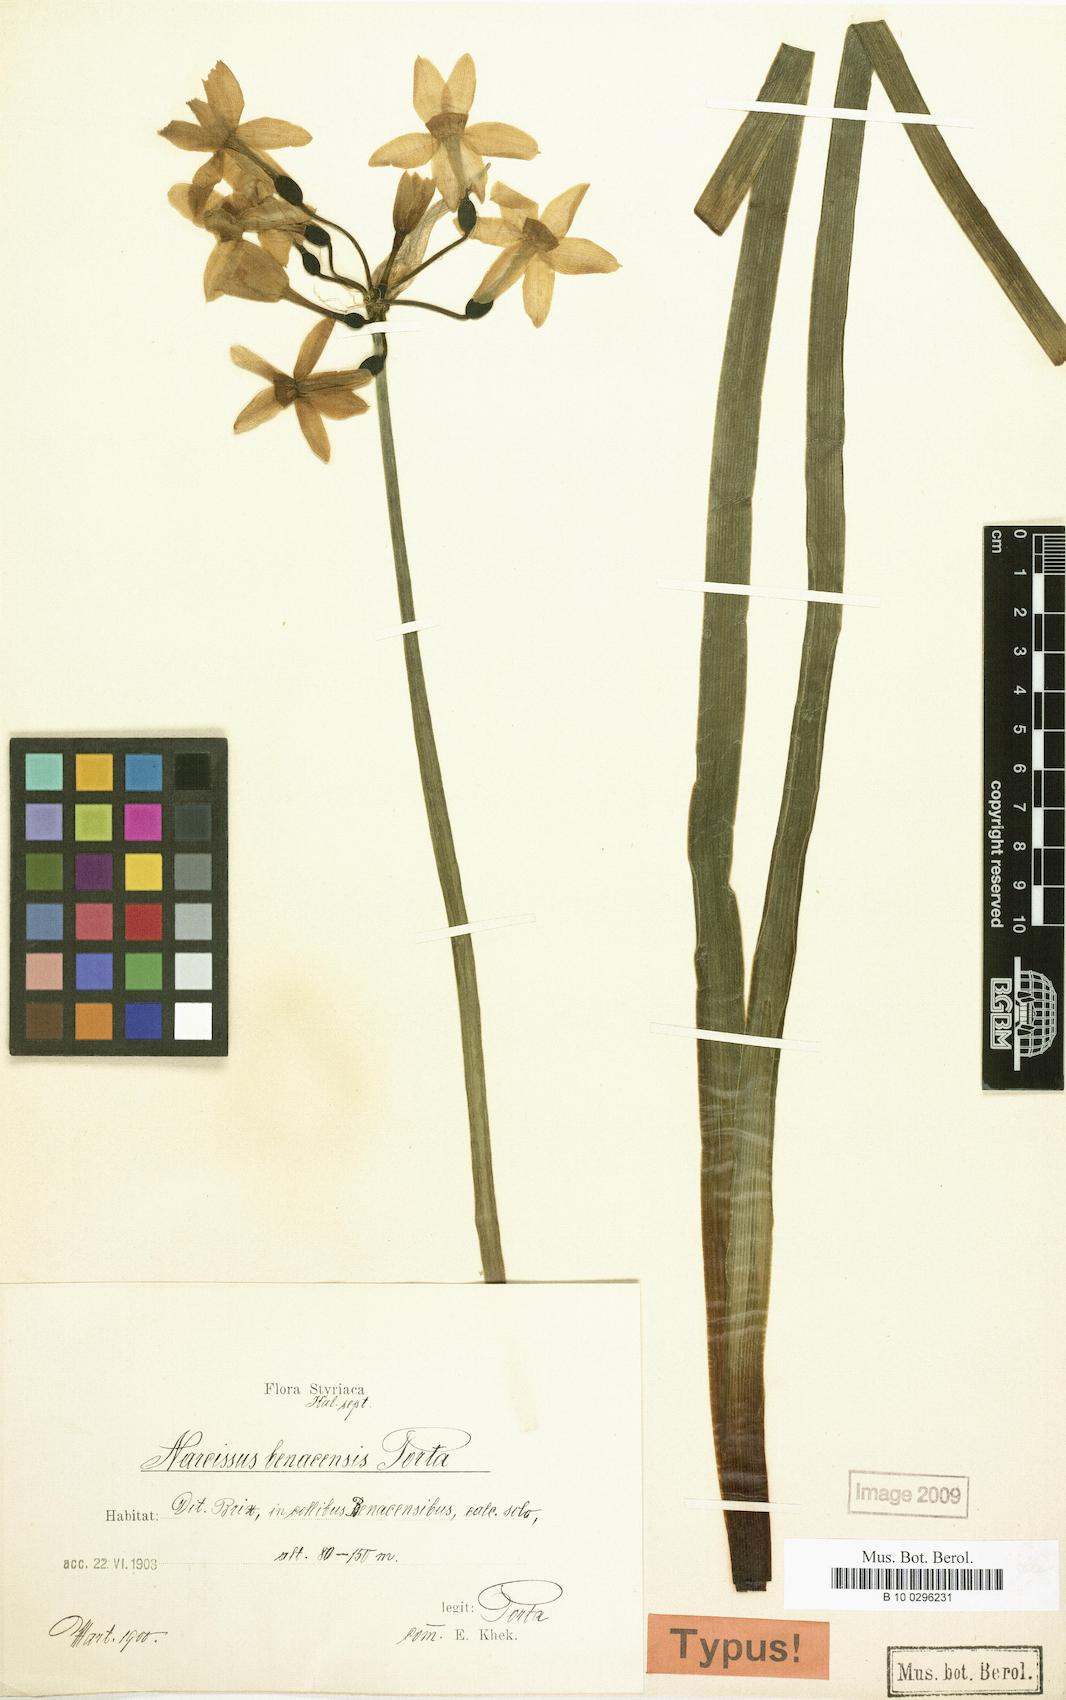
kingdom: Plantae
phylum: Tracheophyta
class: Liliopsida
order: Asparagales
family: Amaryllidaceae
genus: Narcissus
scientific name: Narcissus benacensis
